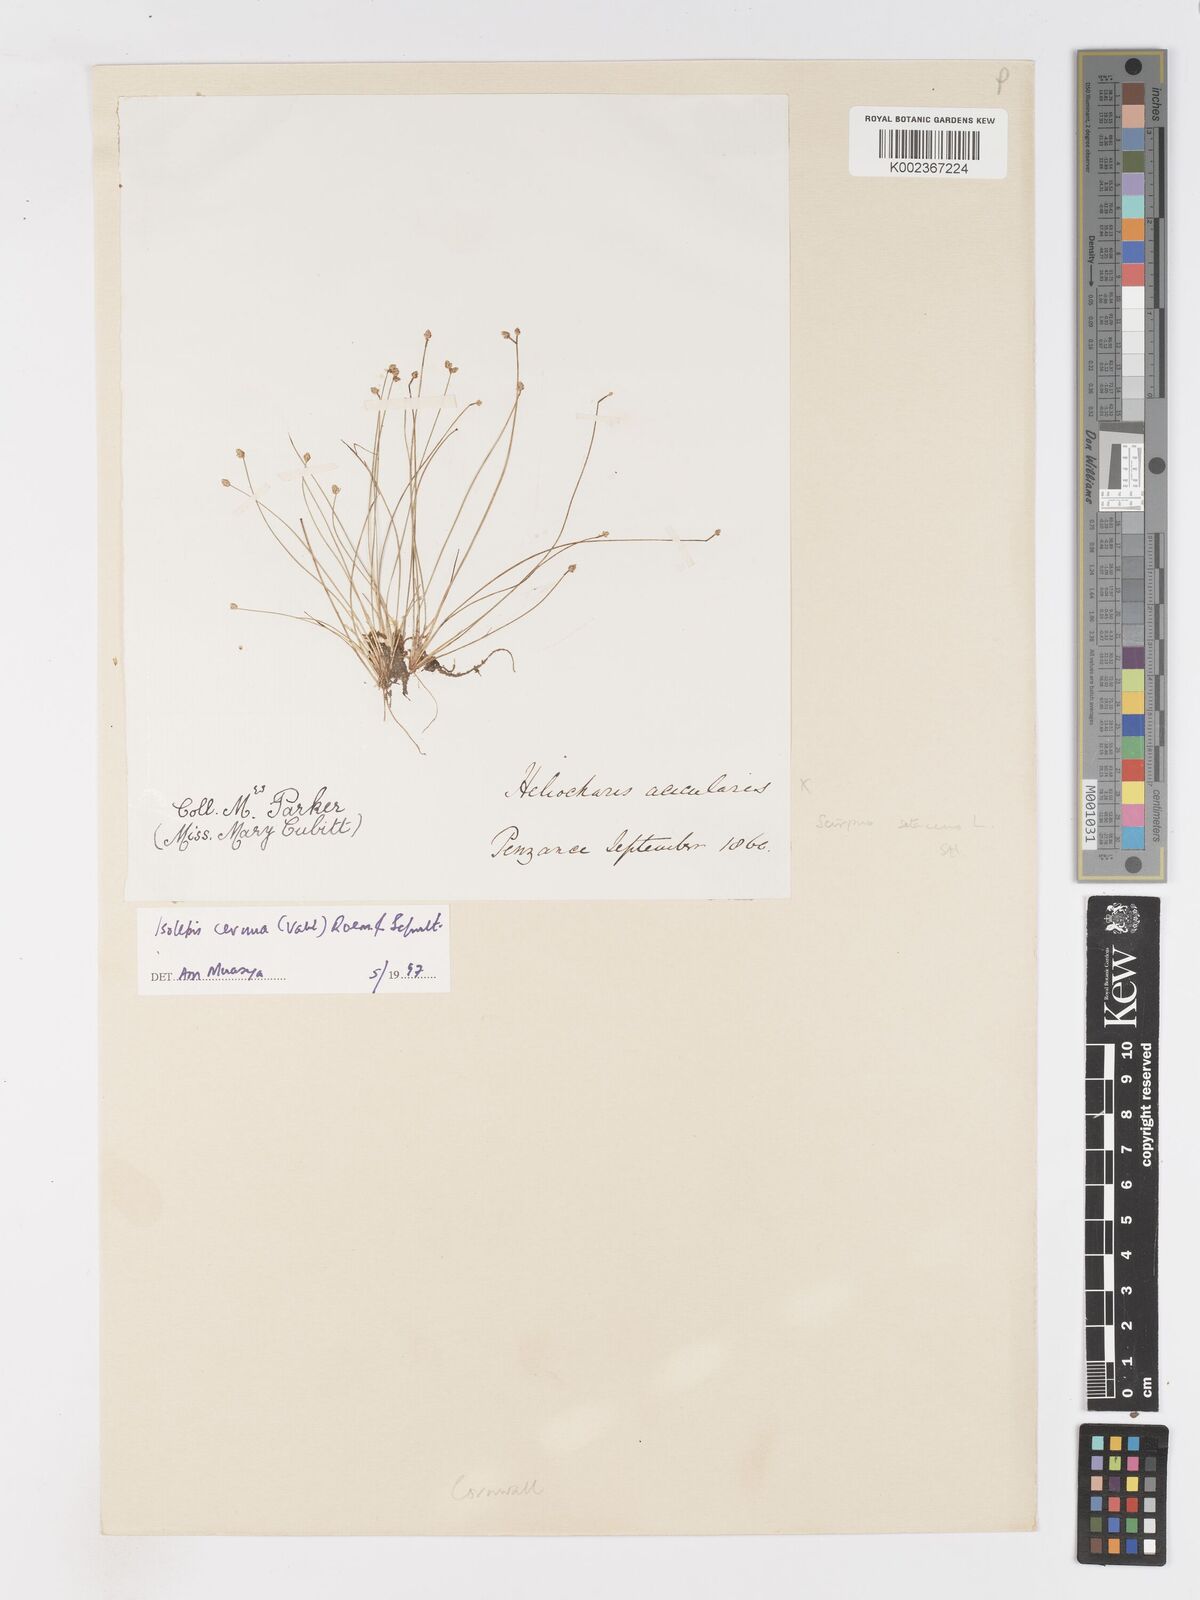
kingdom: Plantae
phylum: Tracheophyta
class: Liliopsida
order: Poales
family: Cyperaceae
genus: Isolepis
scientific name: Isolepis cernua
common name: Slender club-rush
